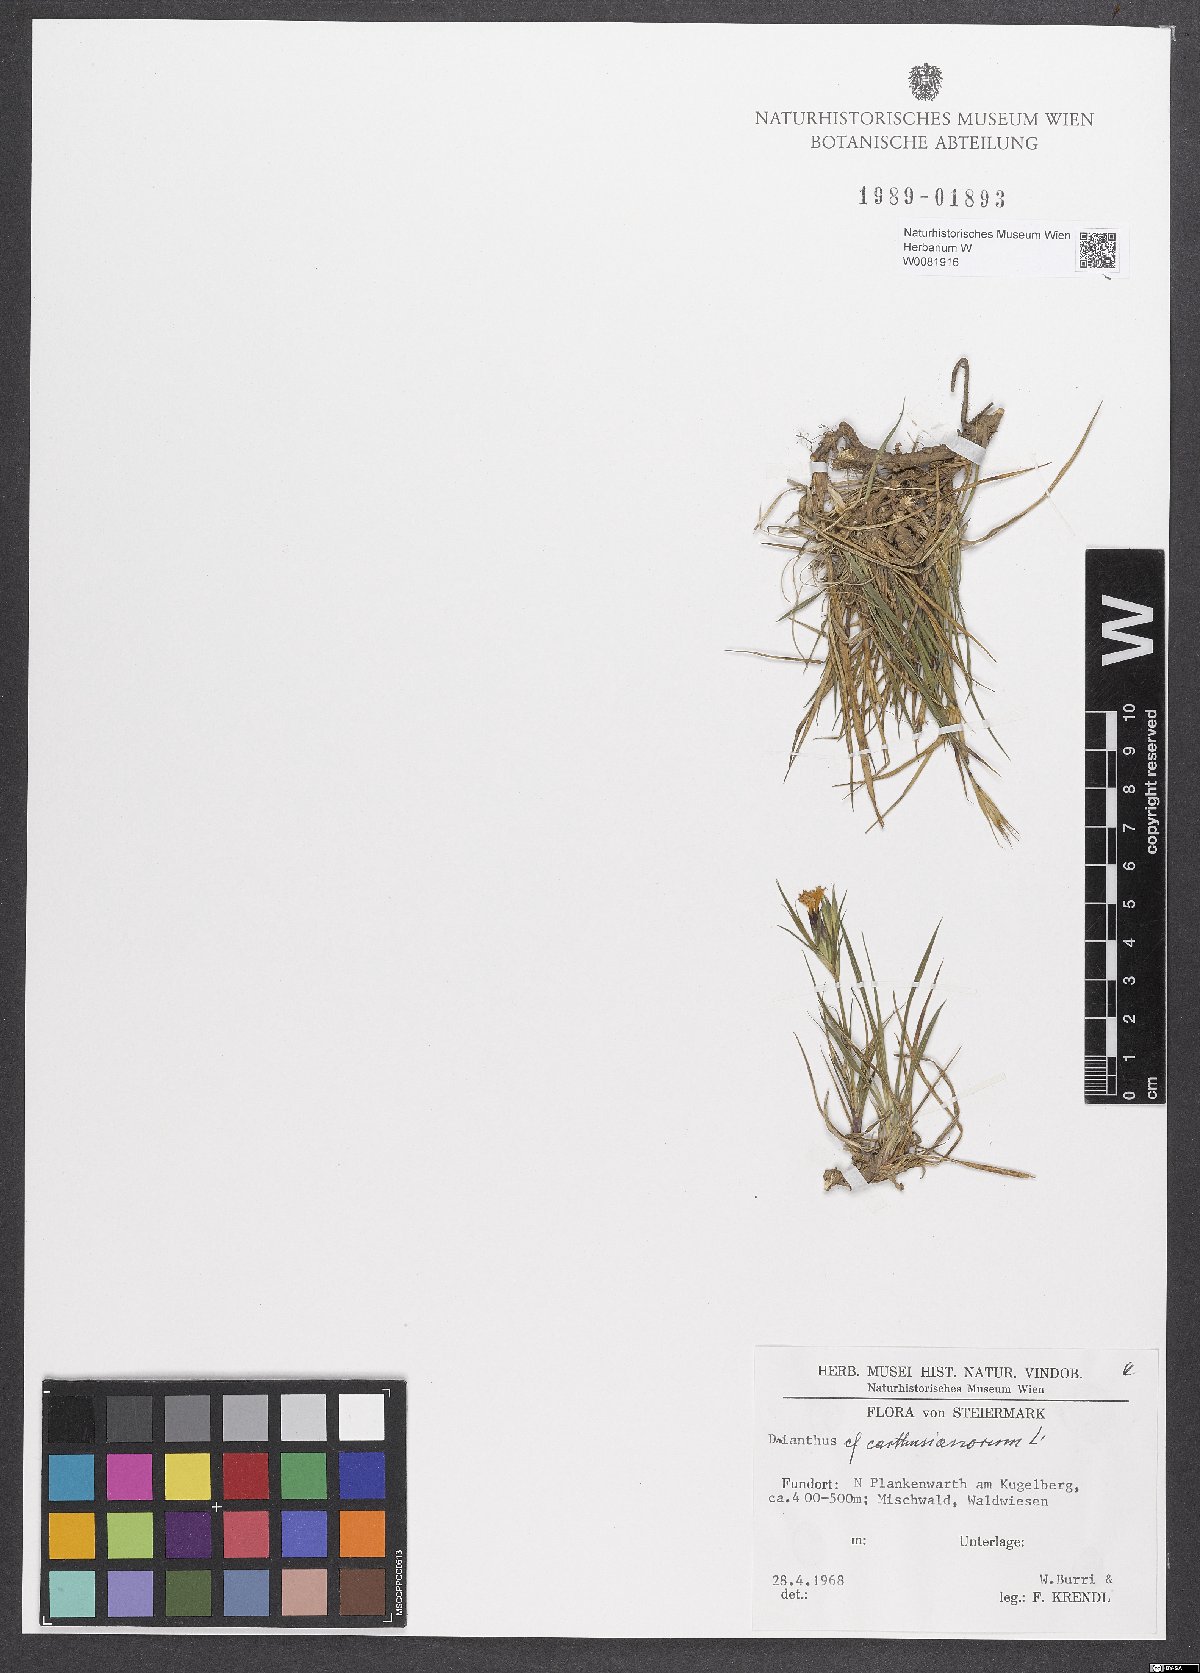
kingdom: Plantae
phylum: Tracheophyta
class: Magnoliopsida
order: Caryophyllales
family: Caryophyllaceae
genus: Dianthus
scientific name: Dianthus carthusianorum
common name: Carthusian pink
